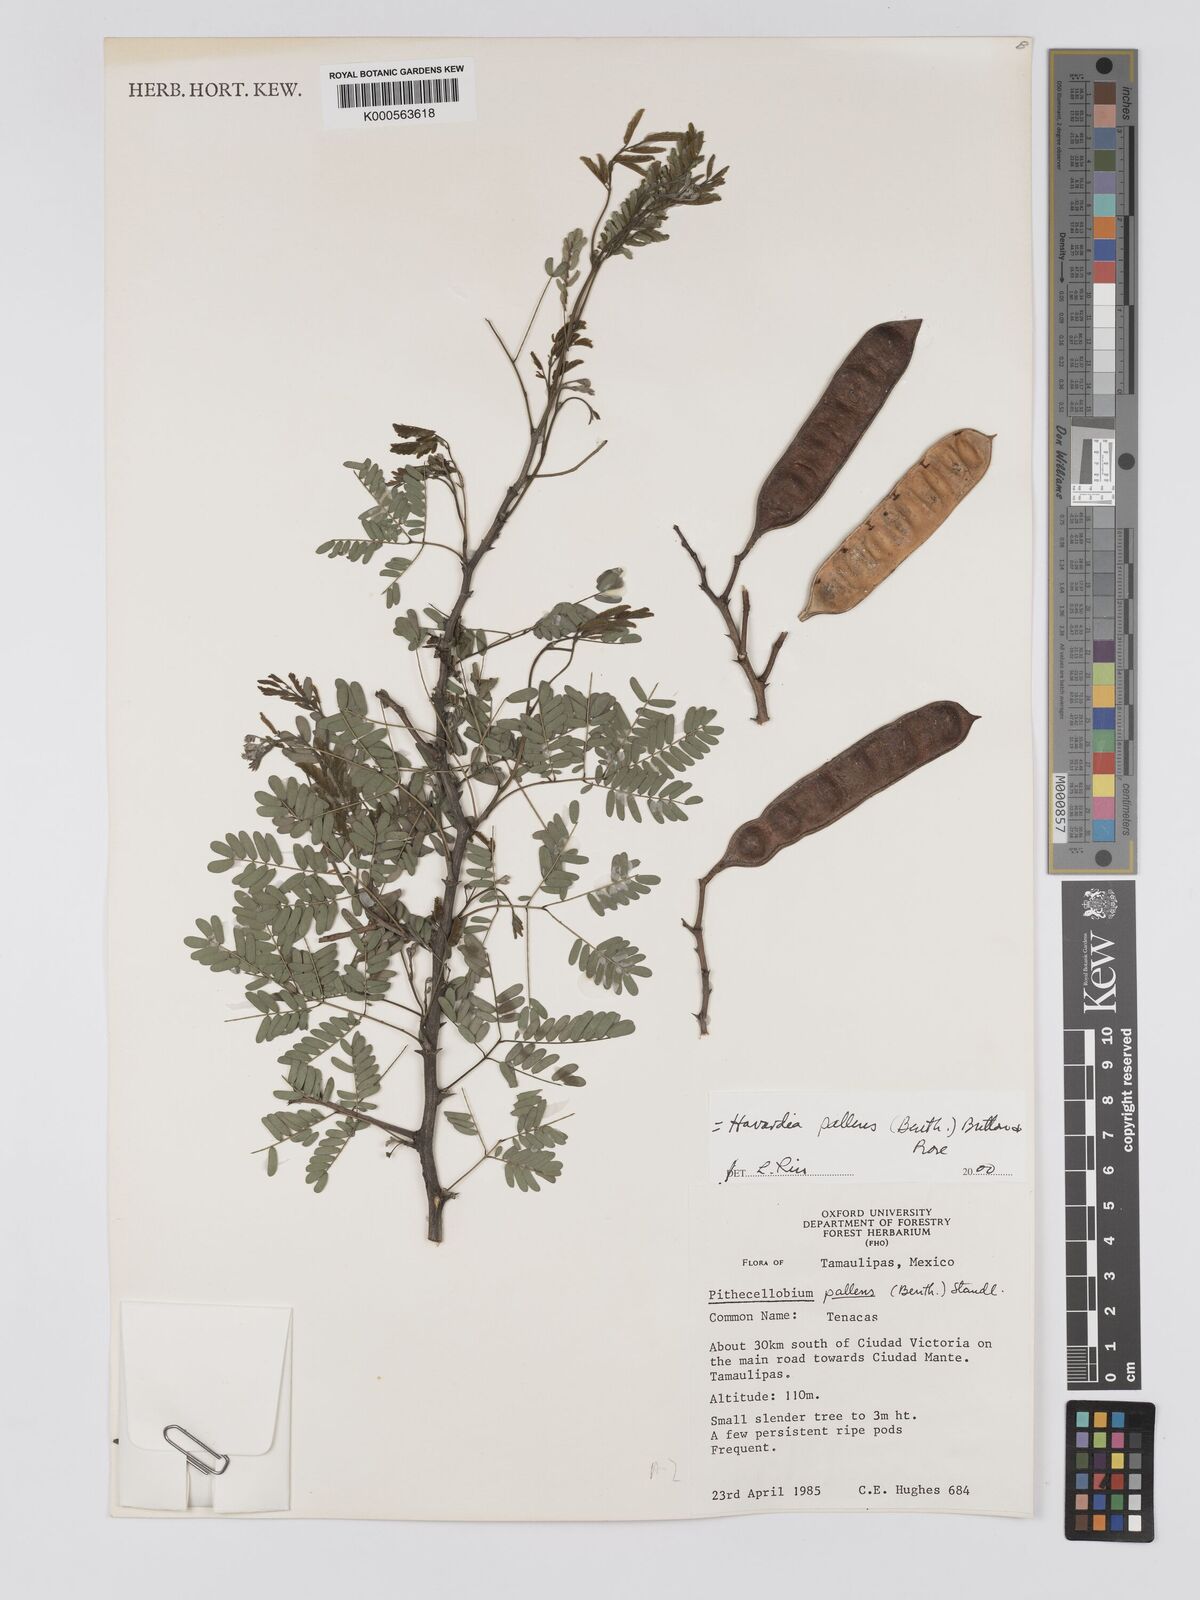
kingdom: Plantae
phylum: Tracheophyta
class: Magnoliopsida
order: Fabales
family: Fabaceae
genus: Havardia
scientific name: Havardia pallens
